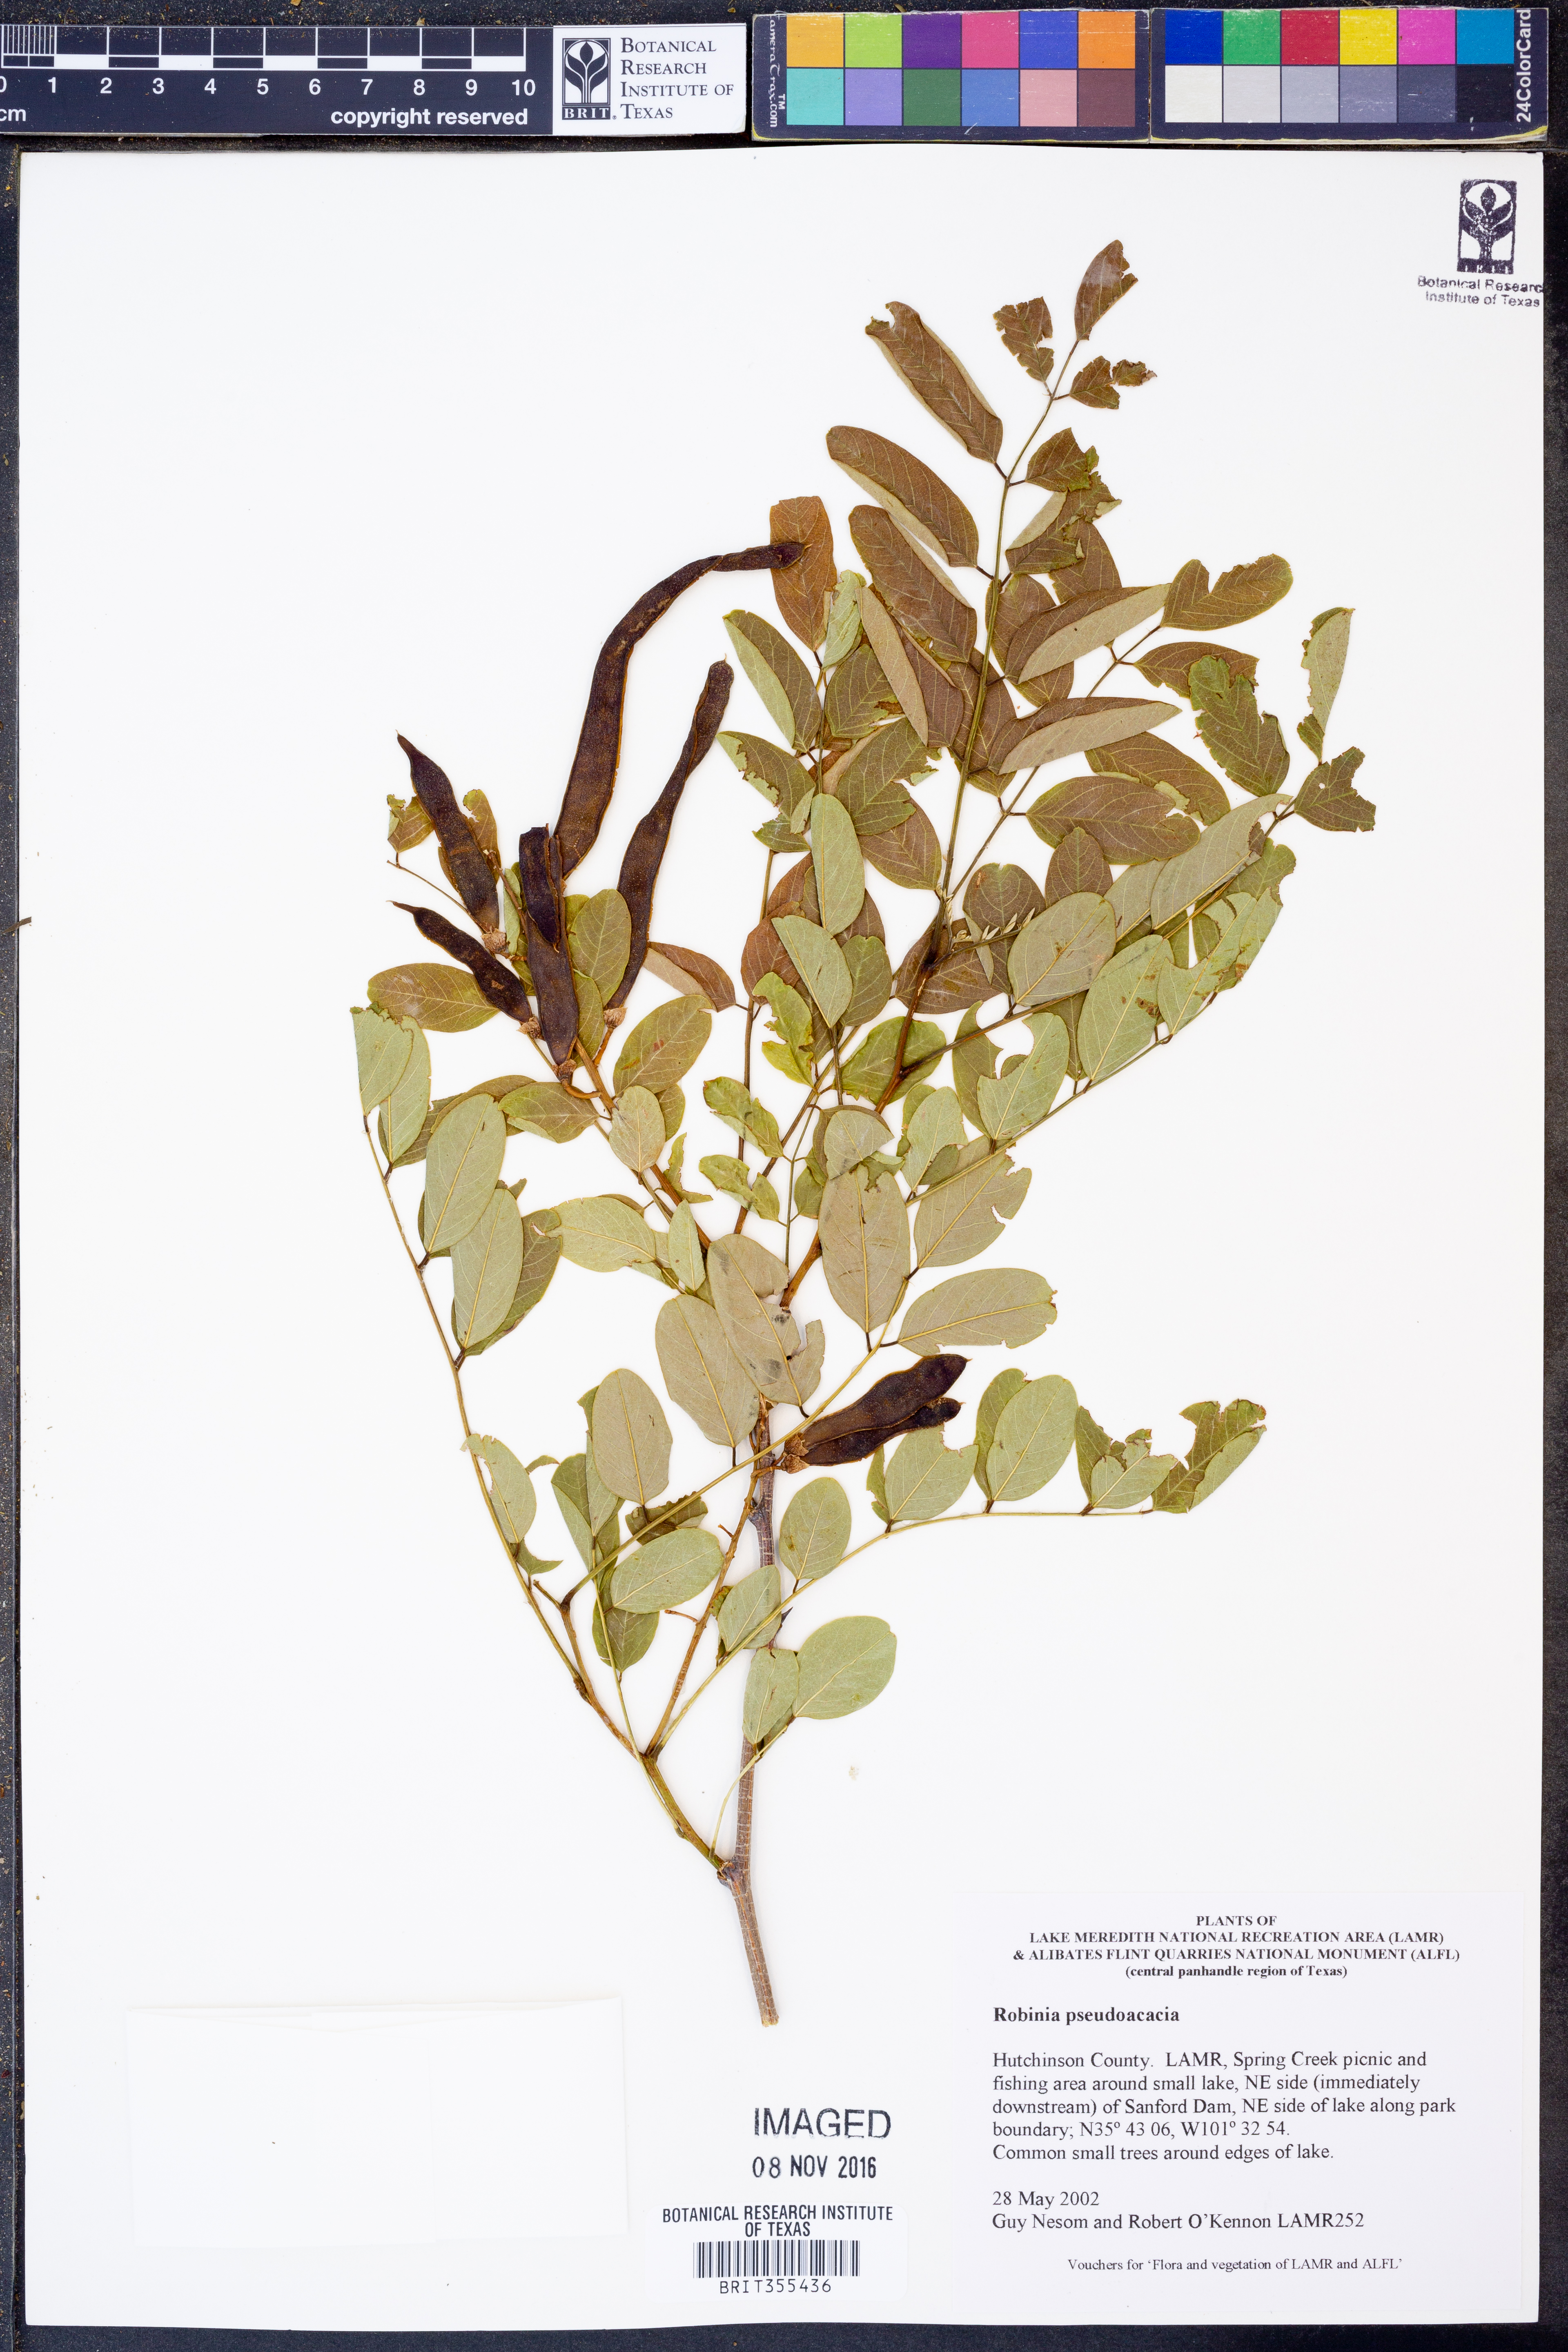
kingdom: Plantae
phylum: Tracheophyta
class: Magnoliopsida
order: Fabales
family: Fabaceae
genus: Robinia
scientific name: Robinia pseudoacacia
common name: Black locust
